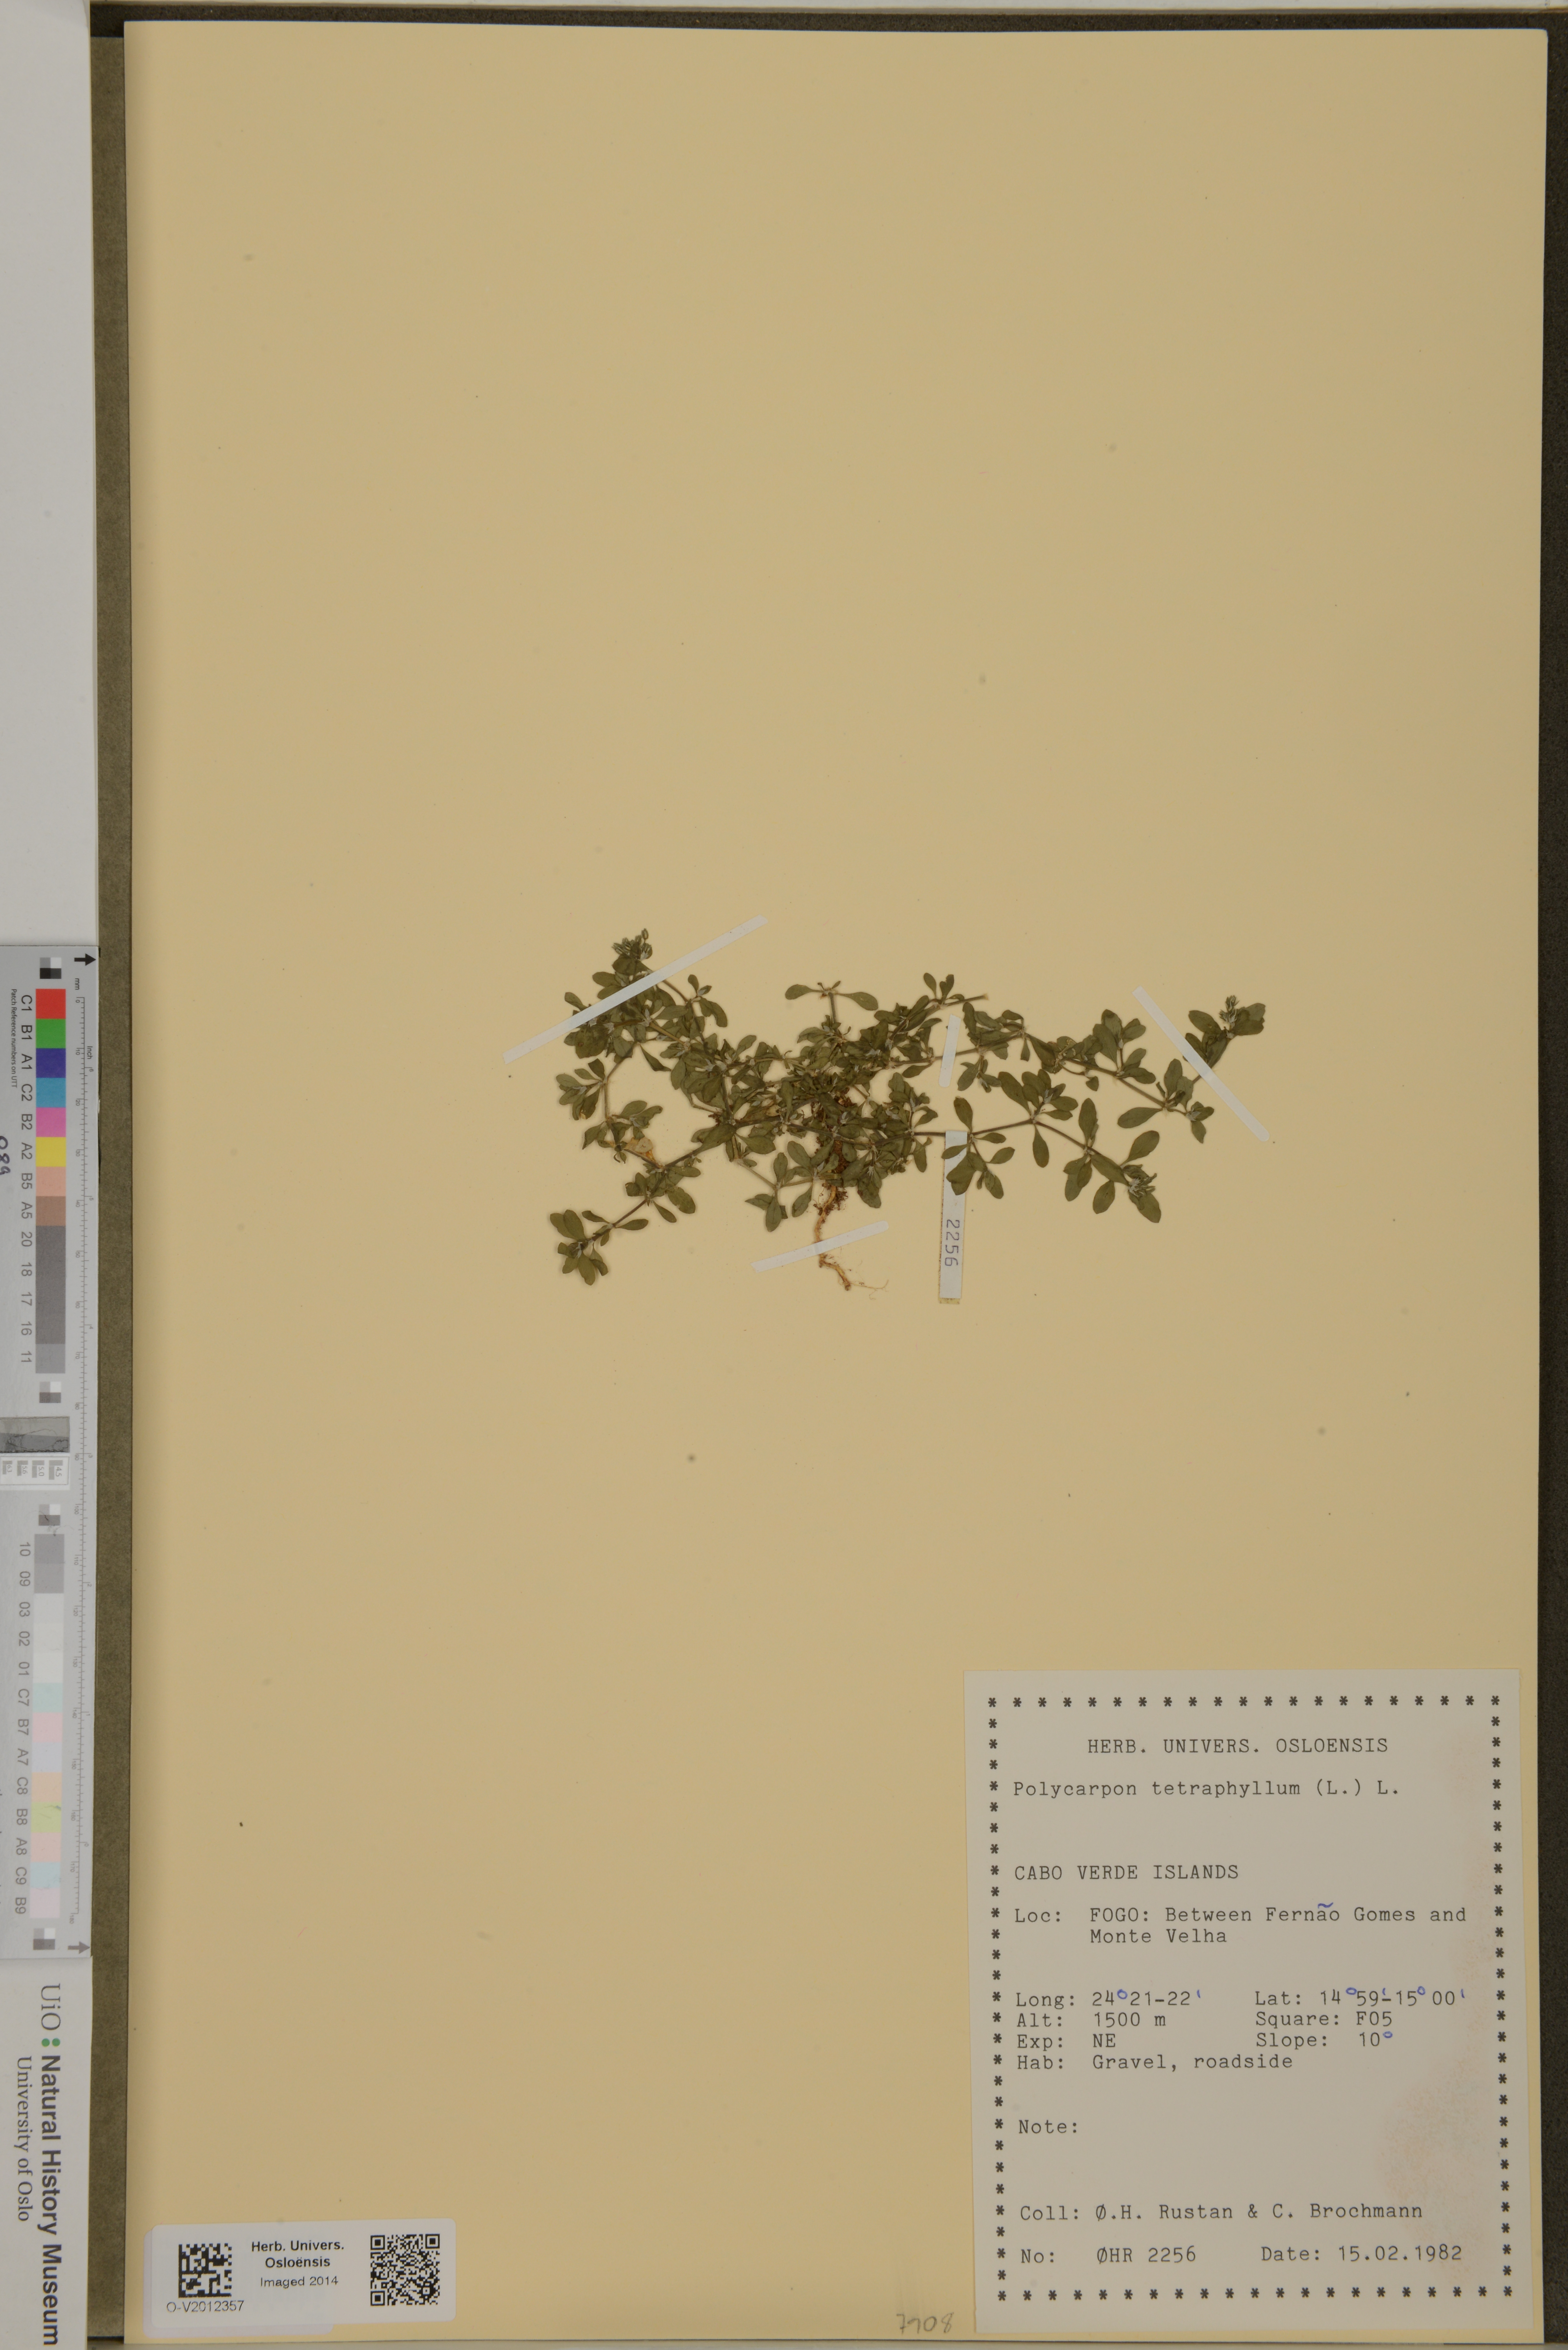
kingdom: Plantae
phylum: Tracheophyta
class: Magnoliopsida
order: Caryophyllales
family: Caryophyllaceae
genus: Polycarpon
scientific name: Polycarpon tetraphyllum
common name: Four-leaved all-seed
